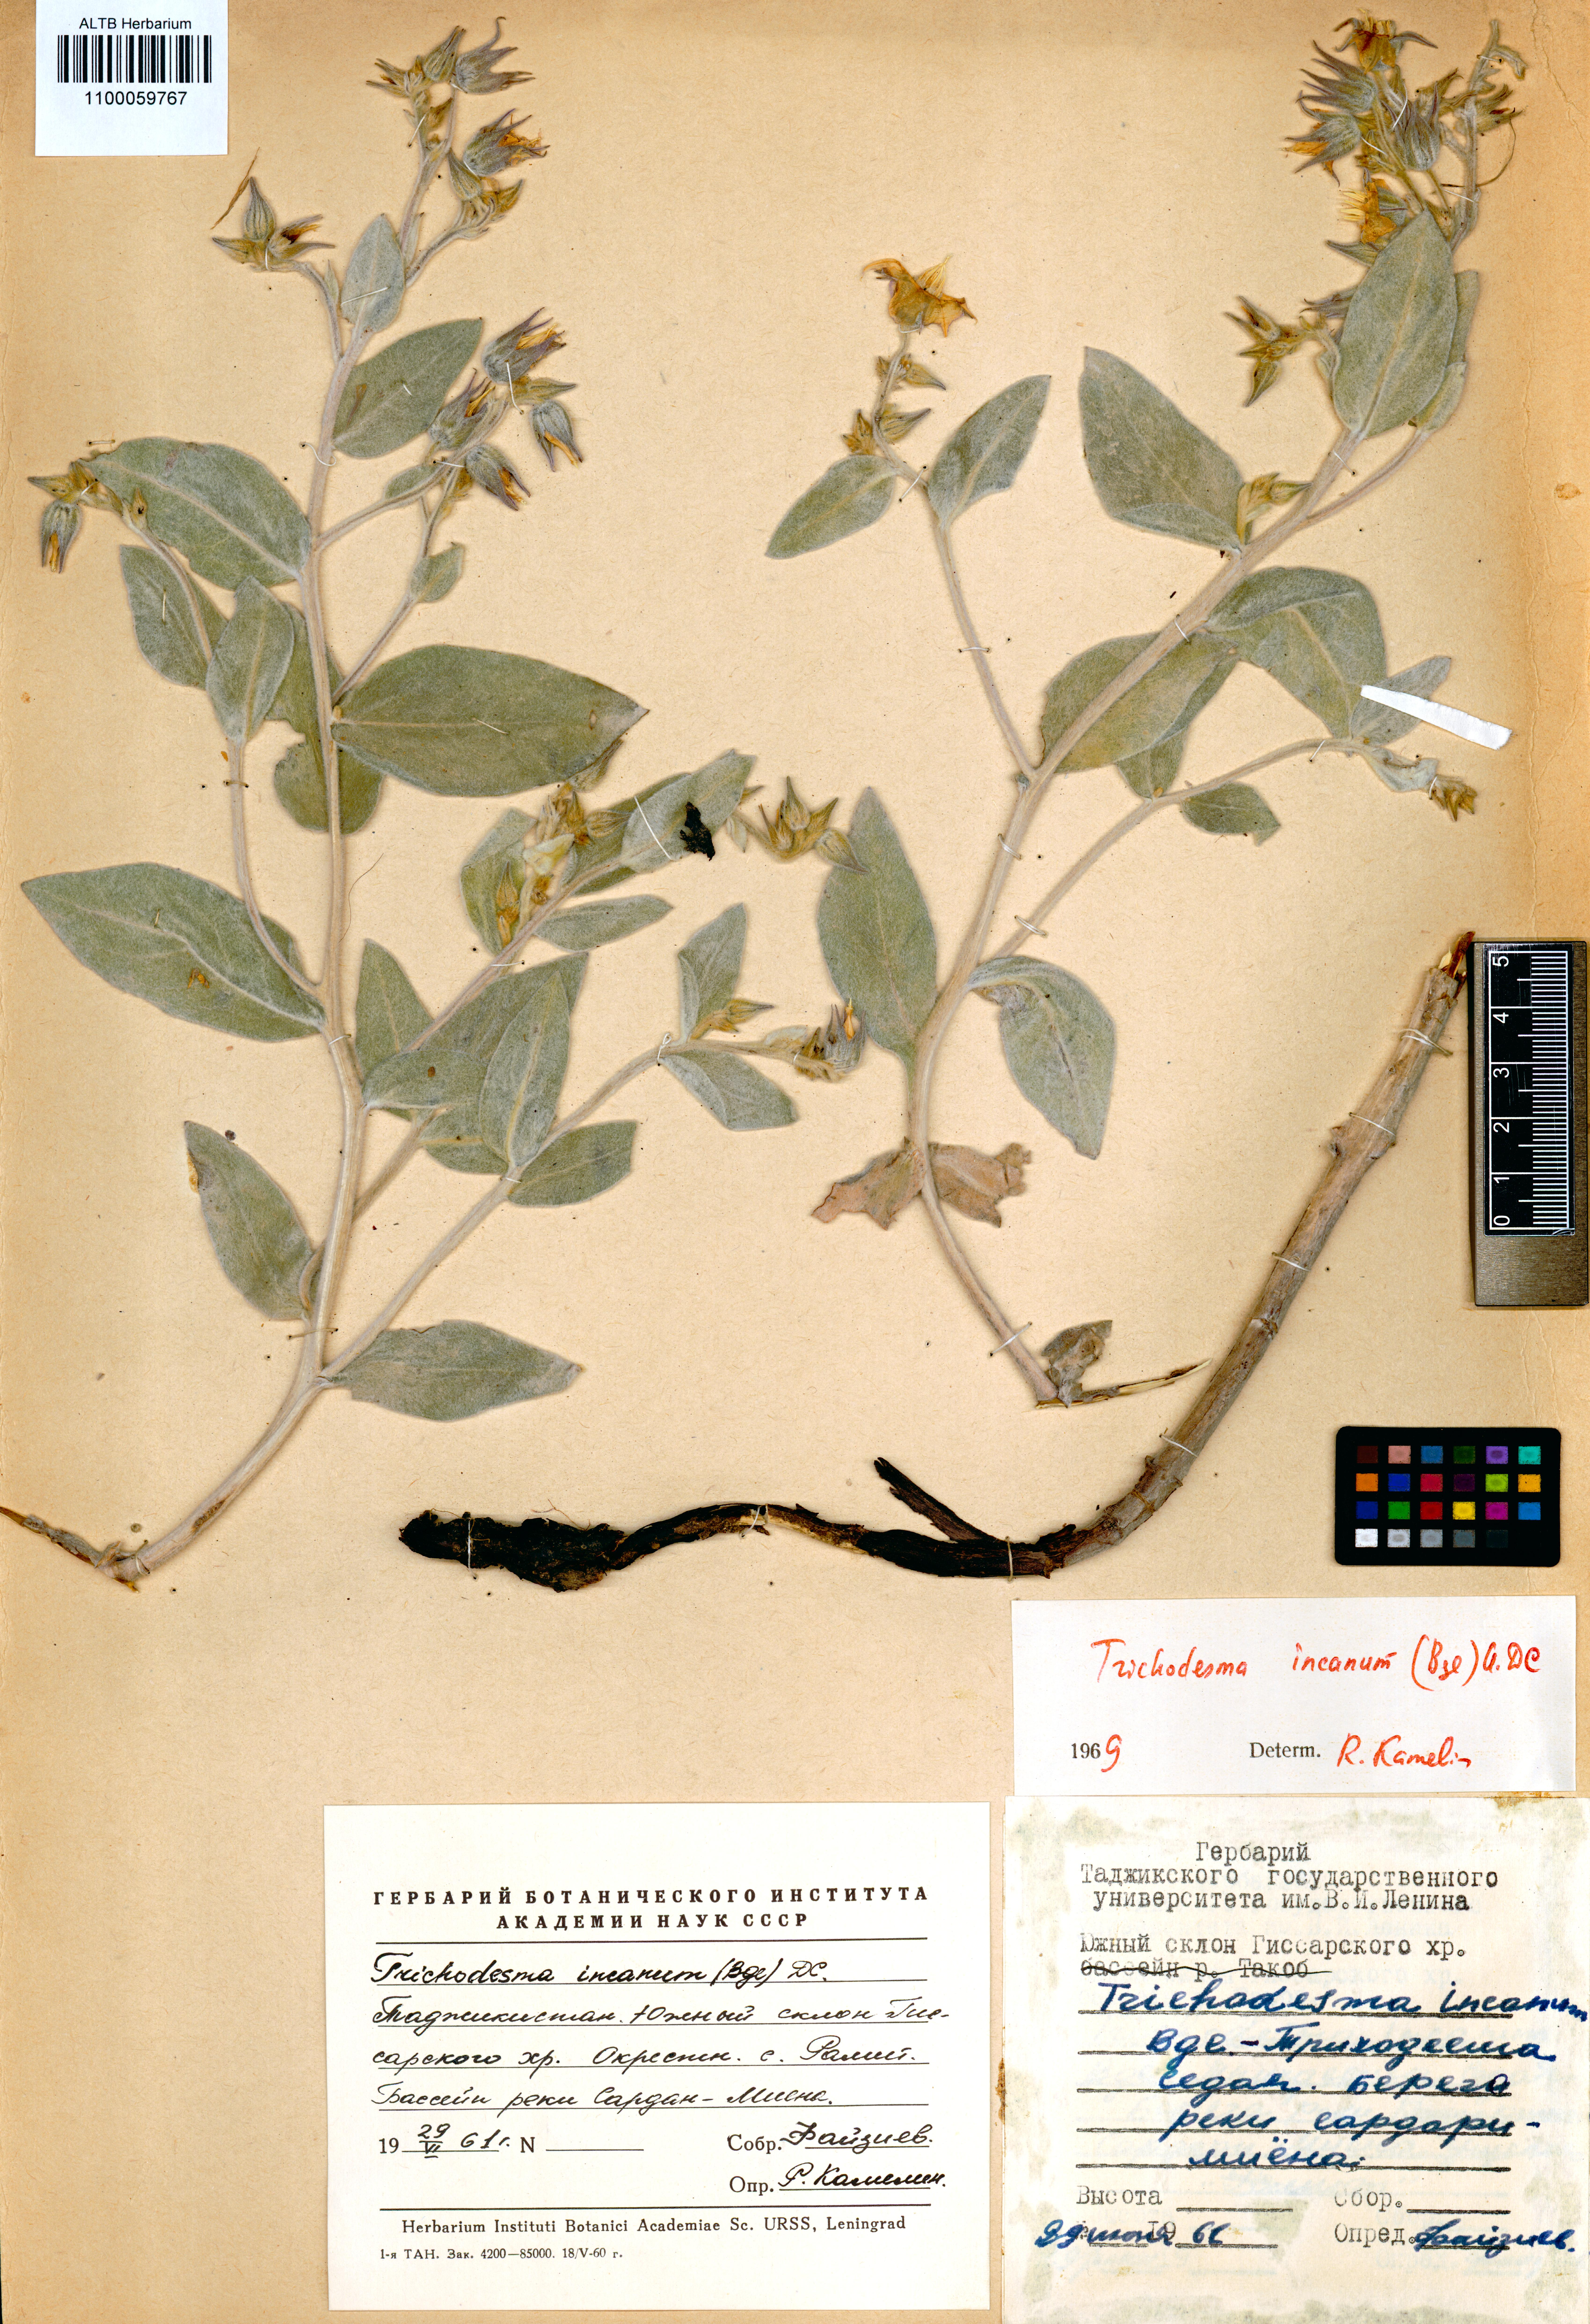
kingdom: Plantae
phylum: Tracheophyta
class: Magnoliopsida
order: Boraginales
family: Boraginaceae
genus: Trichodesma
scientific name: Trichodesma incanum
